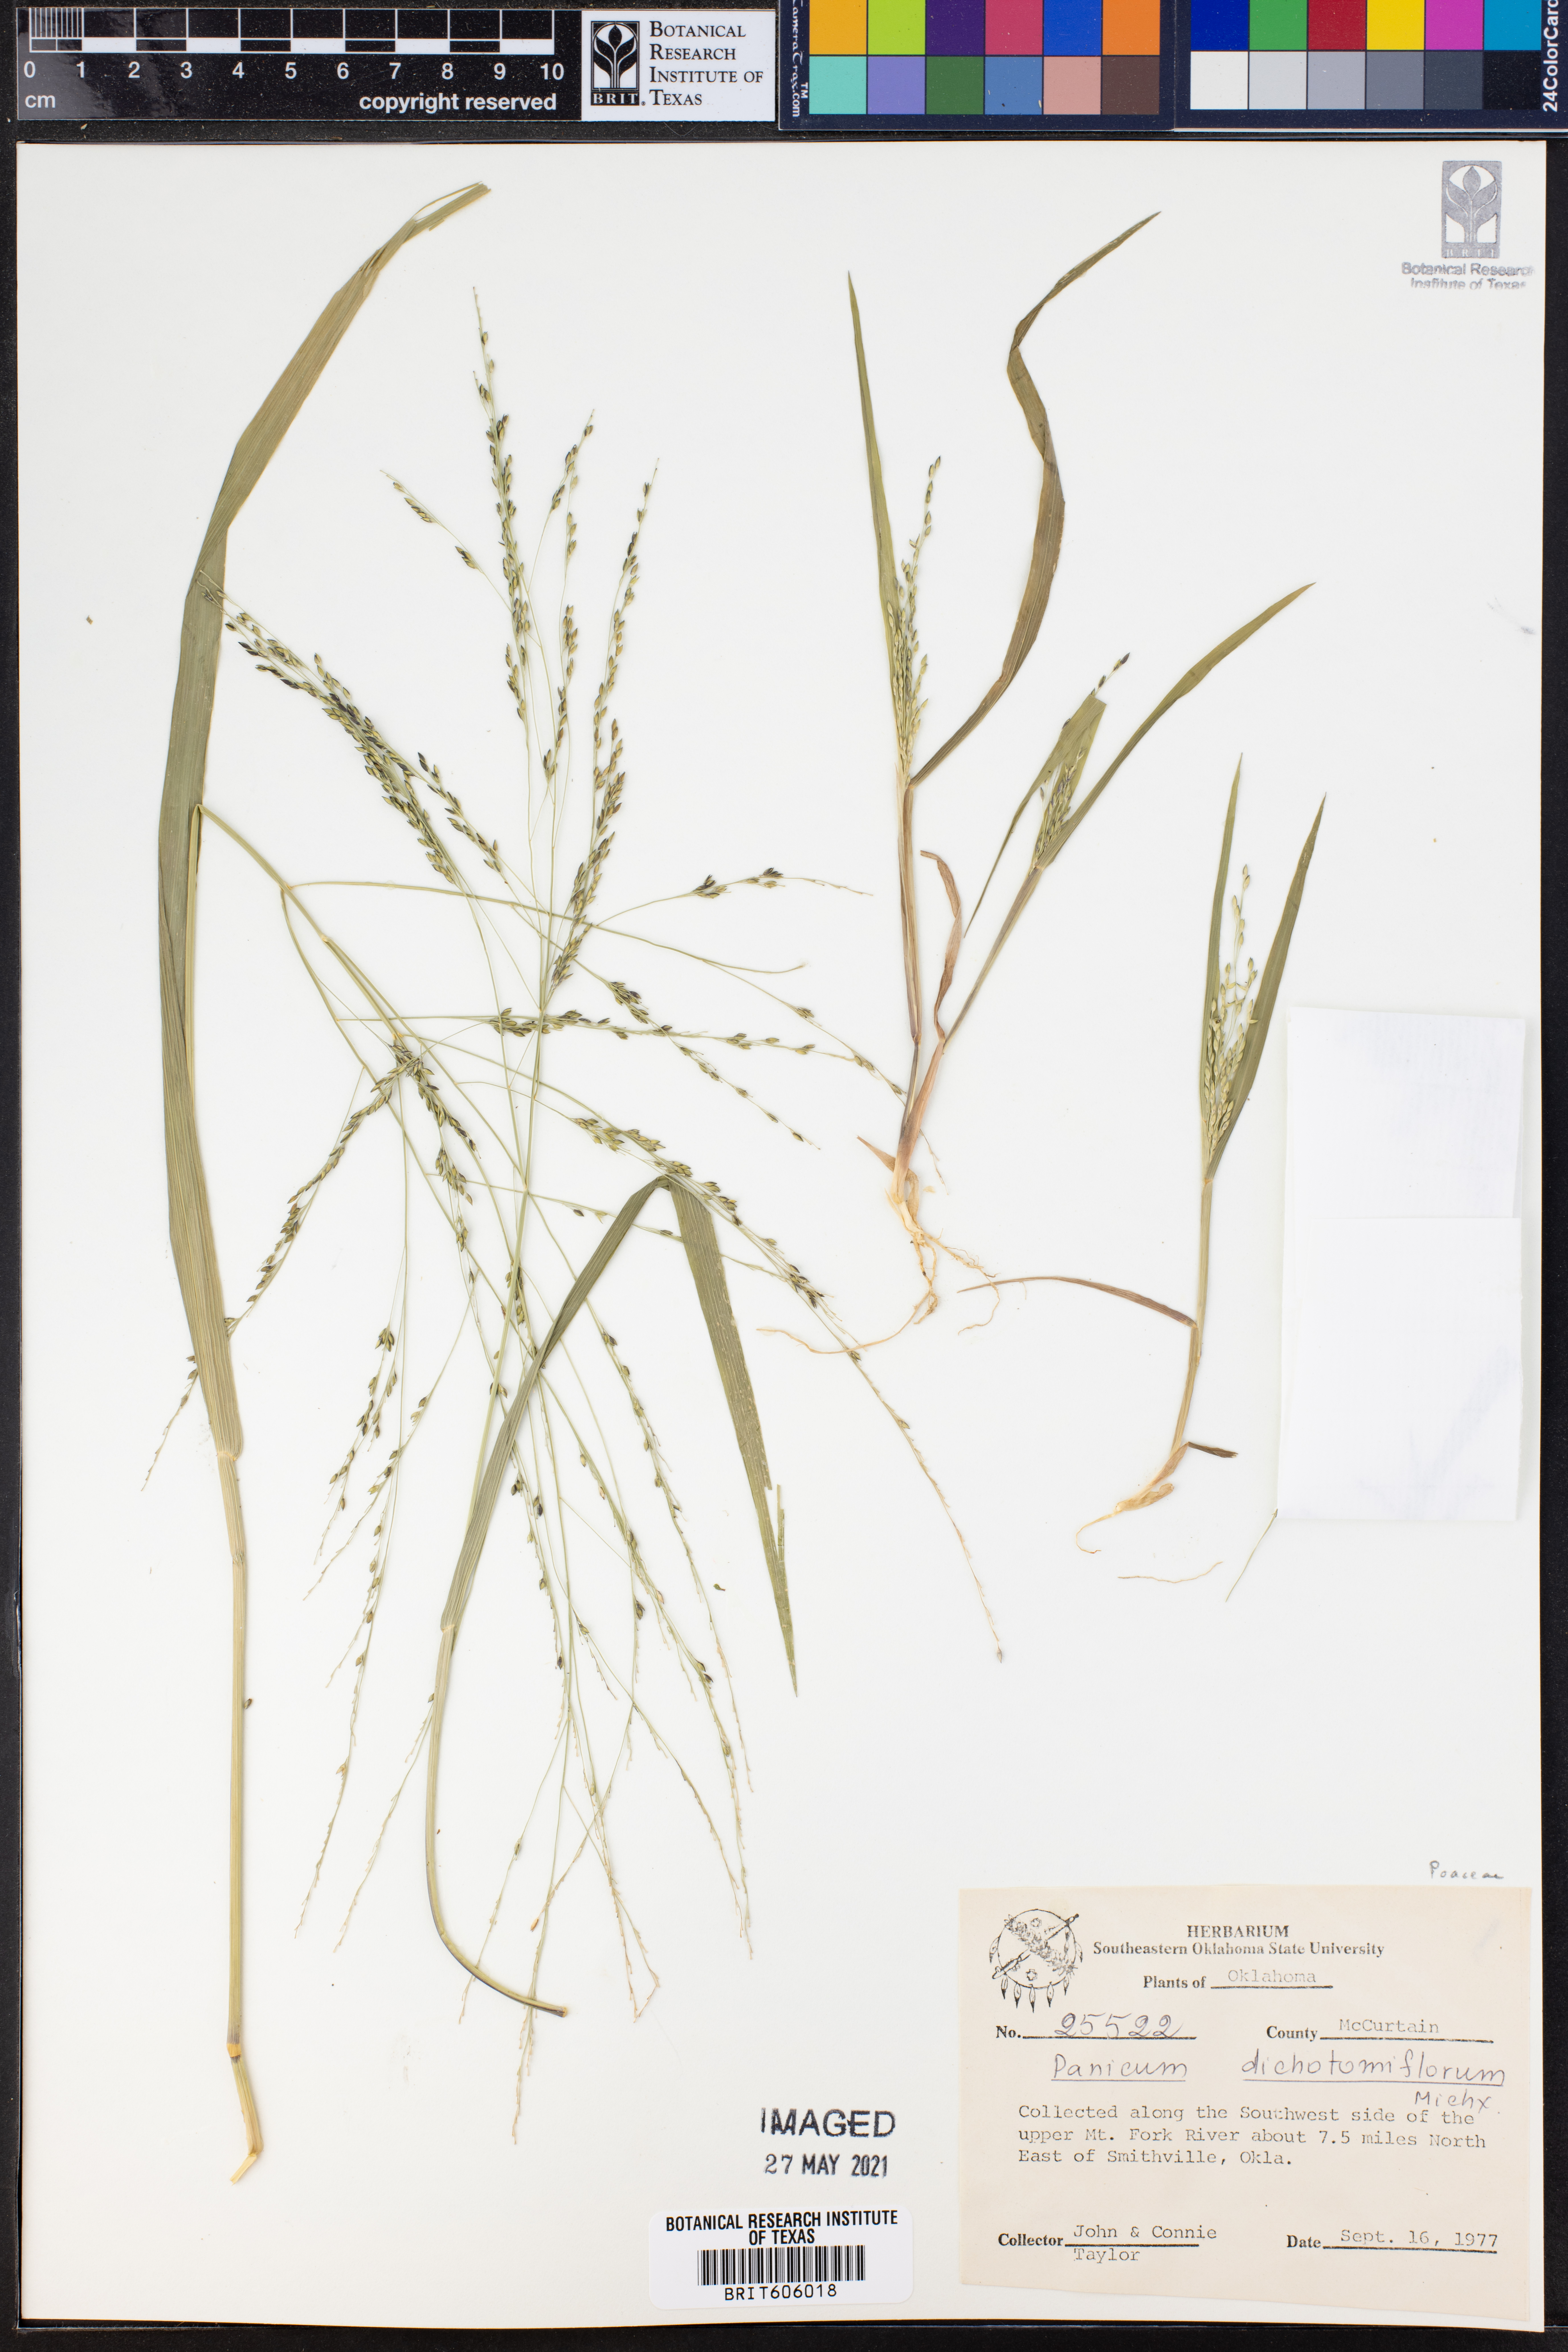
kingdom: Plantae
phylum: Tracheophyta
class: Liliopsida
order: Poales
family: Poaceae
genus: Panicum
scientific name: Panicum dichotomiflorum
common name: Autumn millet
